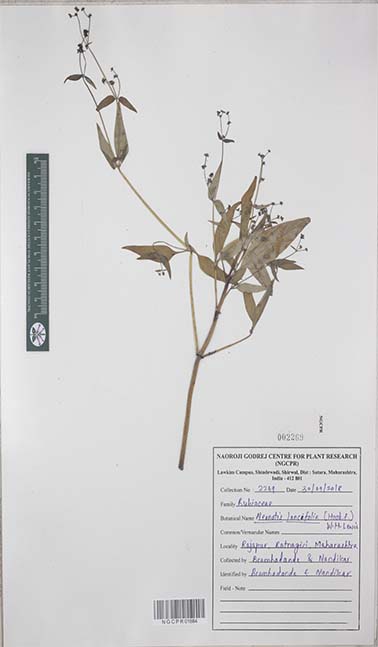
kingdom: Plantae
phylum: Tracheophyta
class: Magnoliopsida
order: Gentianales
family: Rubiaceae
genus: Neanotis
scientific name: Neanotis lancifolia
